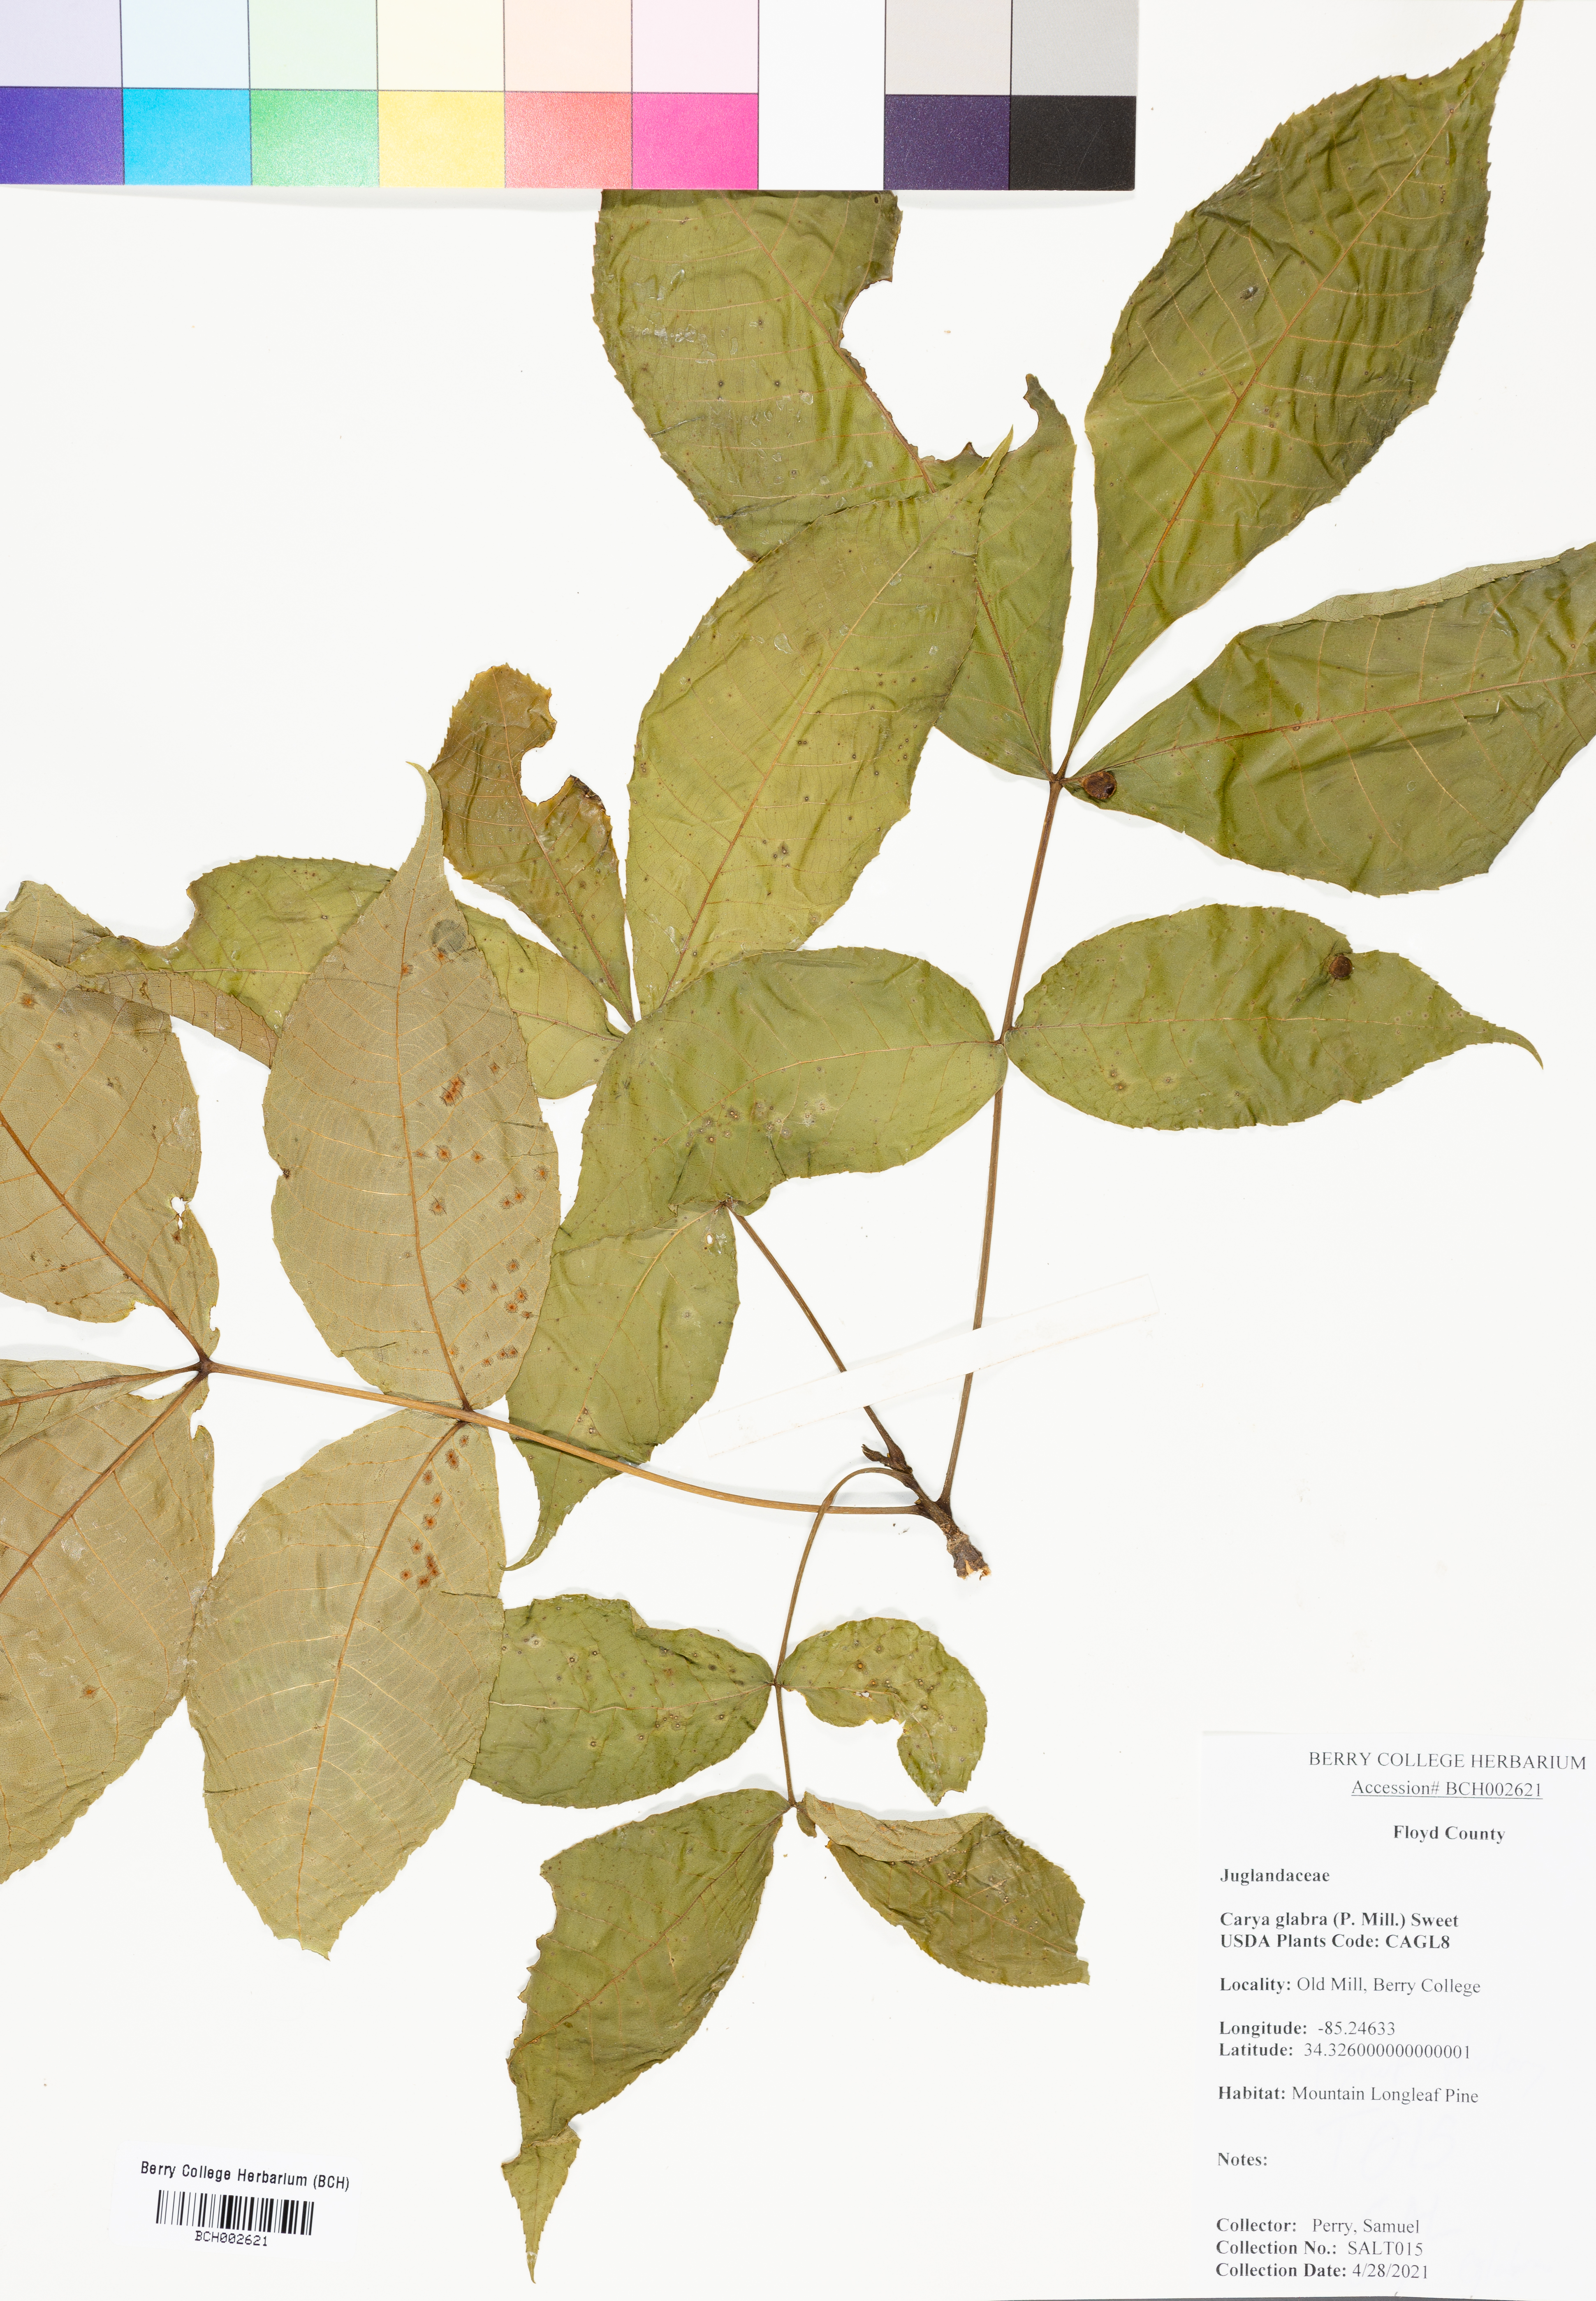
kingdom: Plantae
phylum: Tracheophyta
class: Magnoliopsida
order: Fagales
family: Juglandaceae
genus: Carya
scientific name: Carya glabra
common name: Pignut hickory
